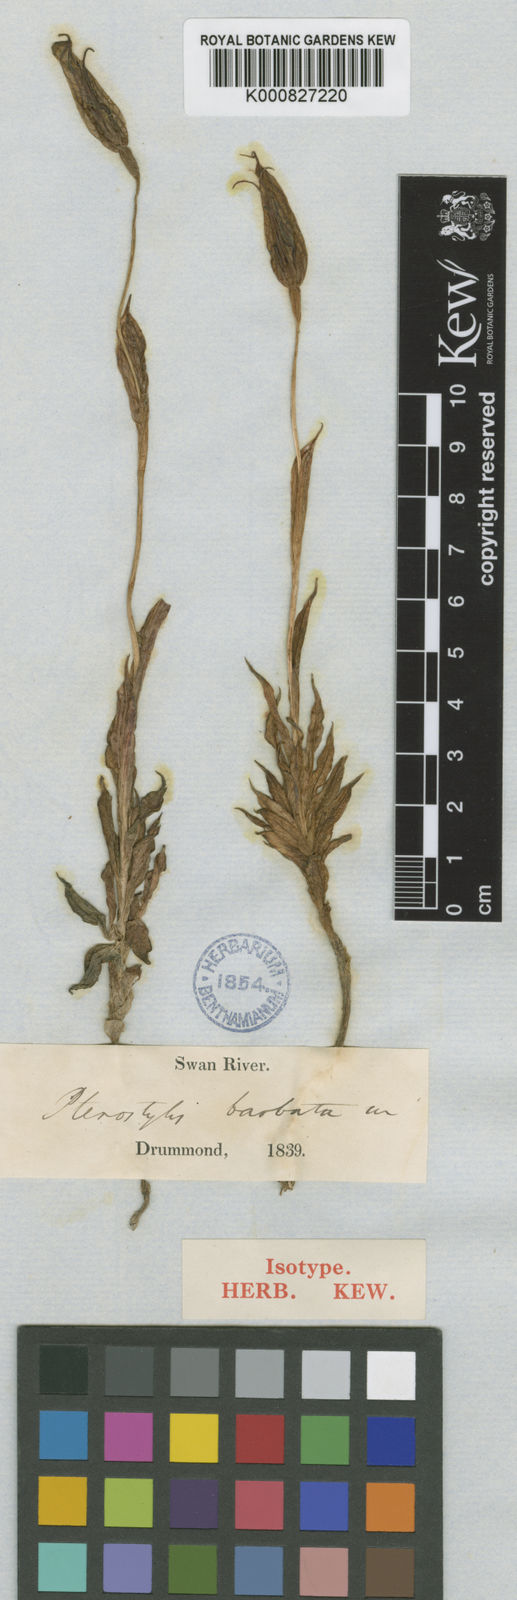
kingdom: Plantae
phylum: Tracheophyta
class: Liliopsida
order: Asparagales
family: Orchidaceae
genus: Pterostylis
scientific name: Pterostylis aphylla
